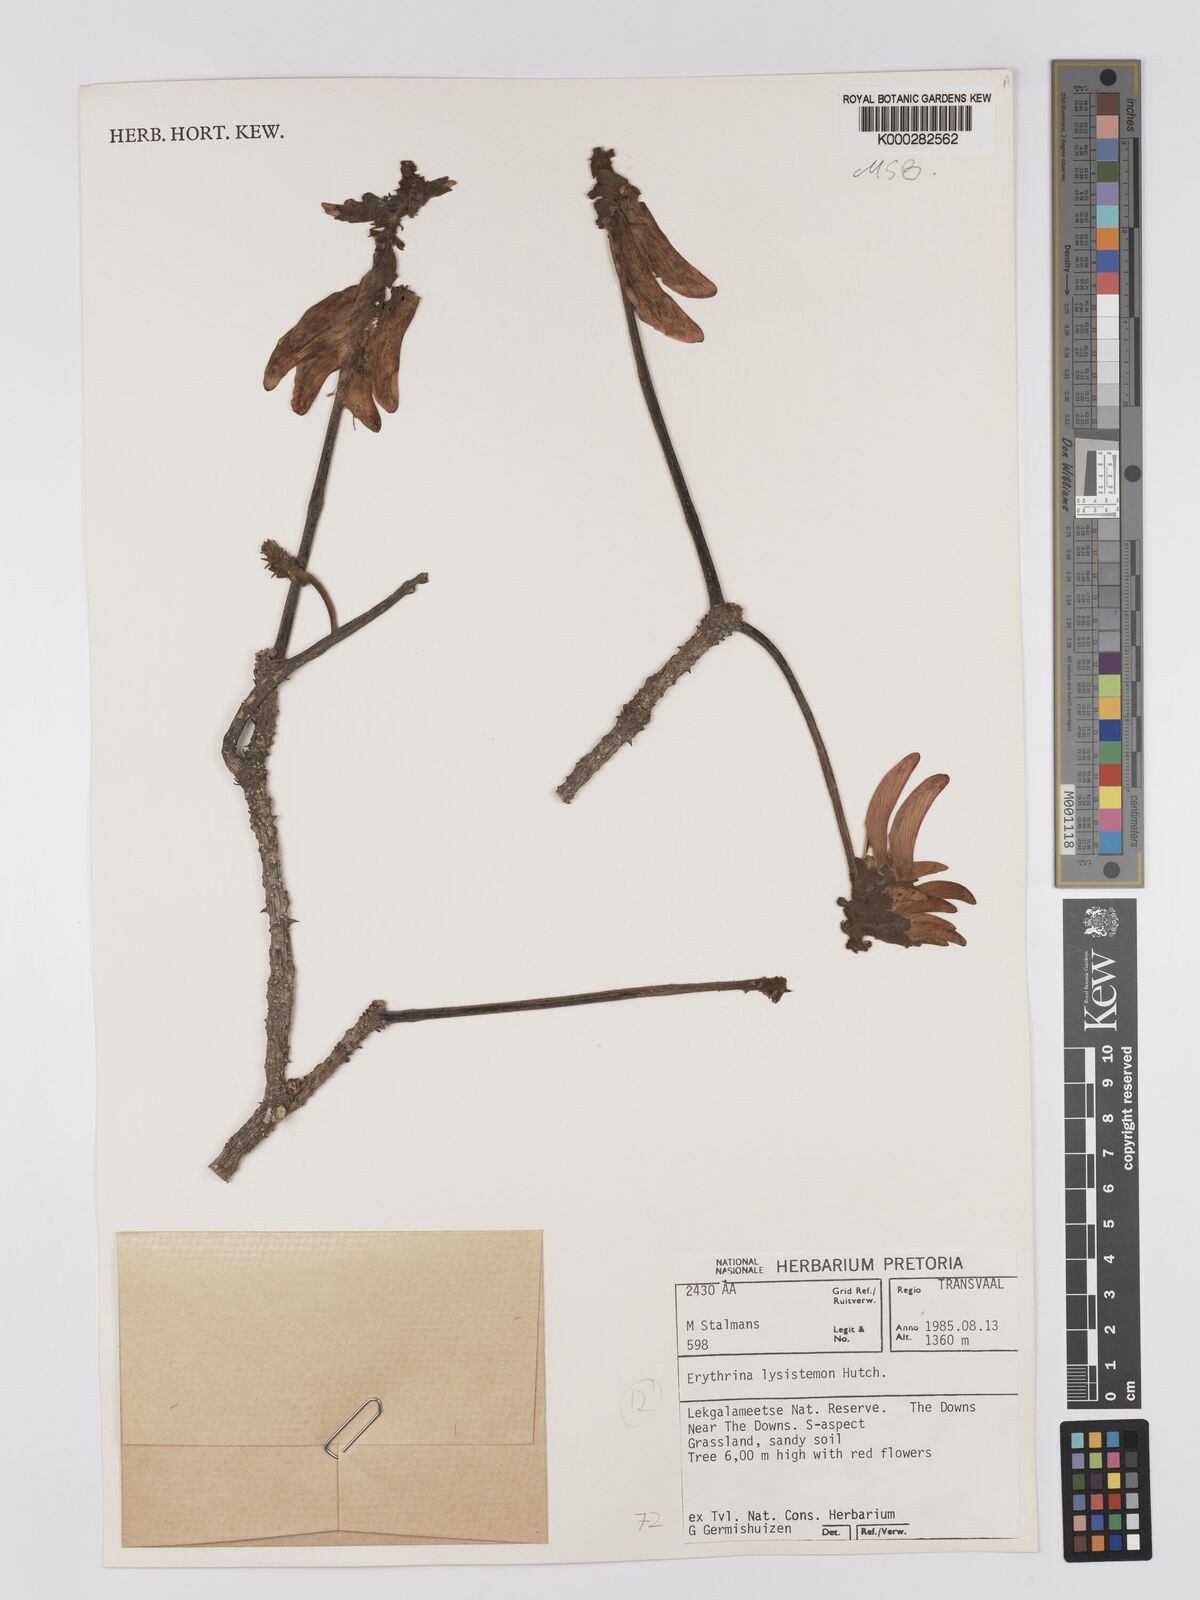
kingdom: Plantae
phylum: Tracheophyta
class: Magnoliopsida
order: Fabales
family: Fabaceae
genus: Erythrina
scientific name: Erythrina lysistemon
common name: Common coral tree
